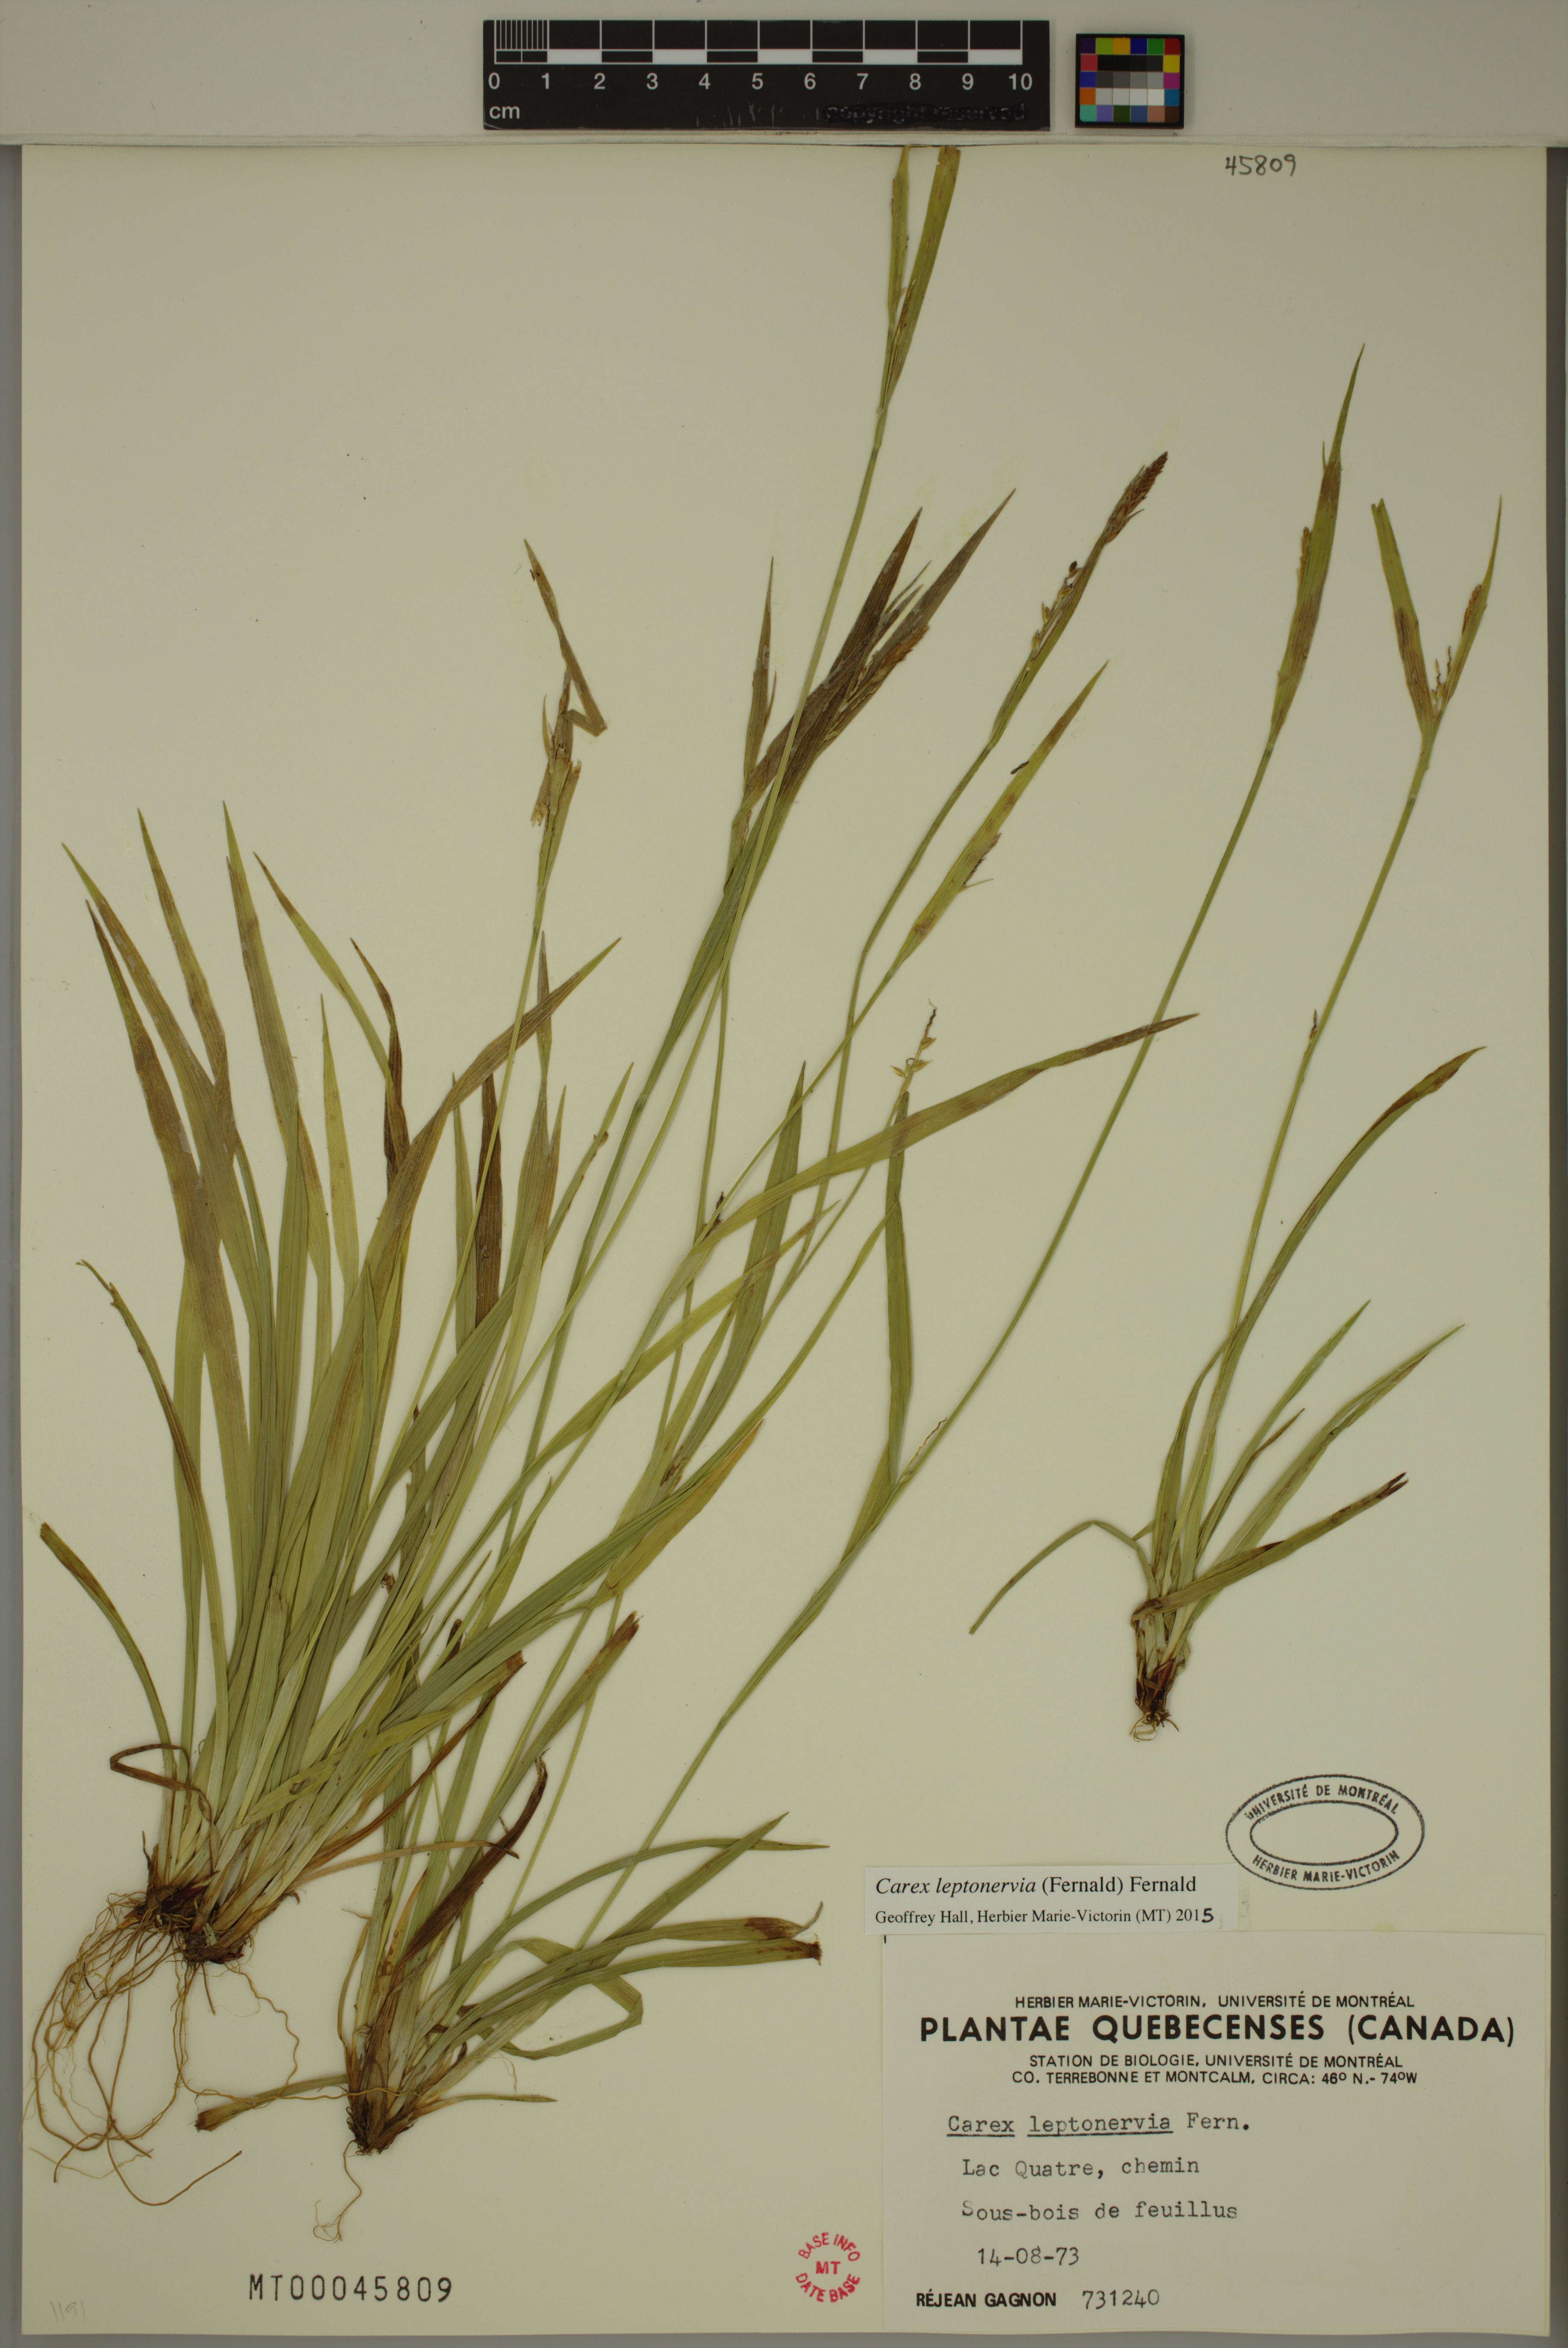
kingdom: Plantae
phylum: Tracheophyta
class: Liliopsida
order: Poales
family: Cyperaceae
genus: Carex
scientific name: Carex leptonervia
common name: Few-nerved wood sedge
